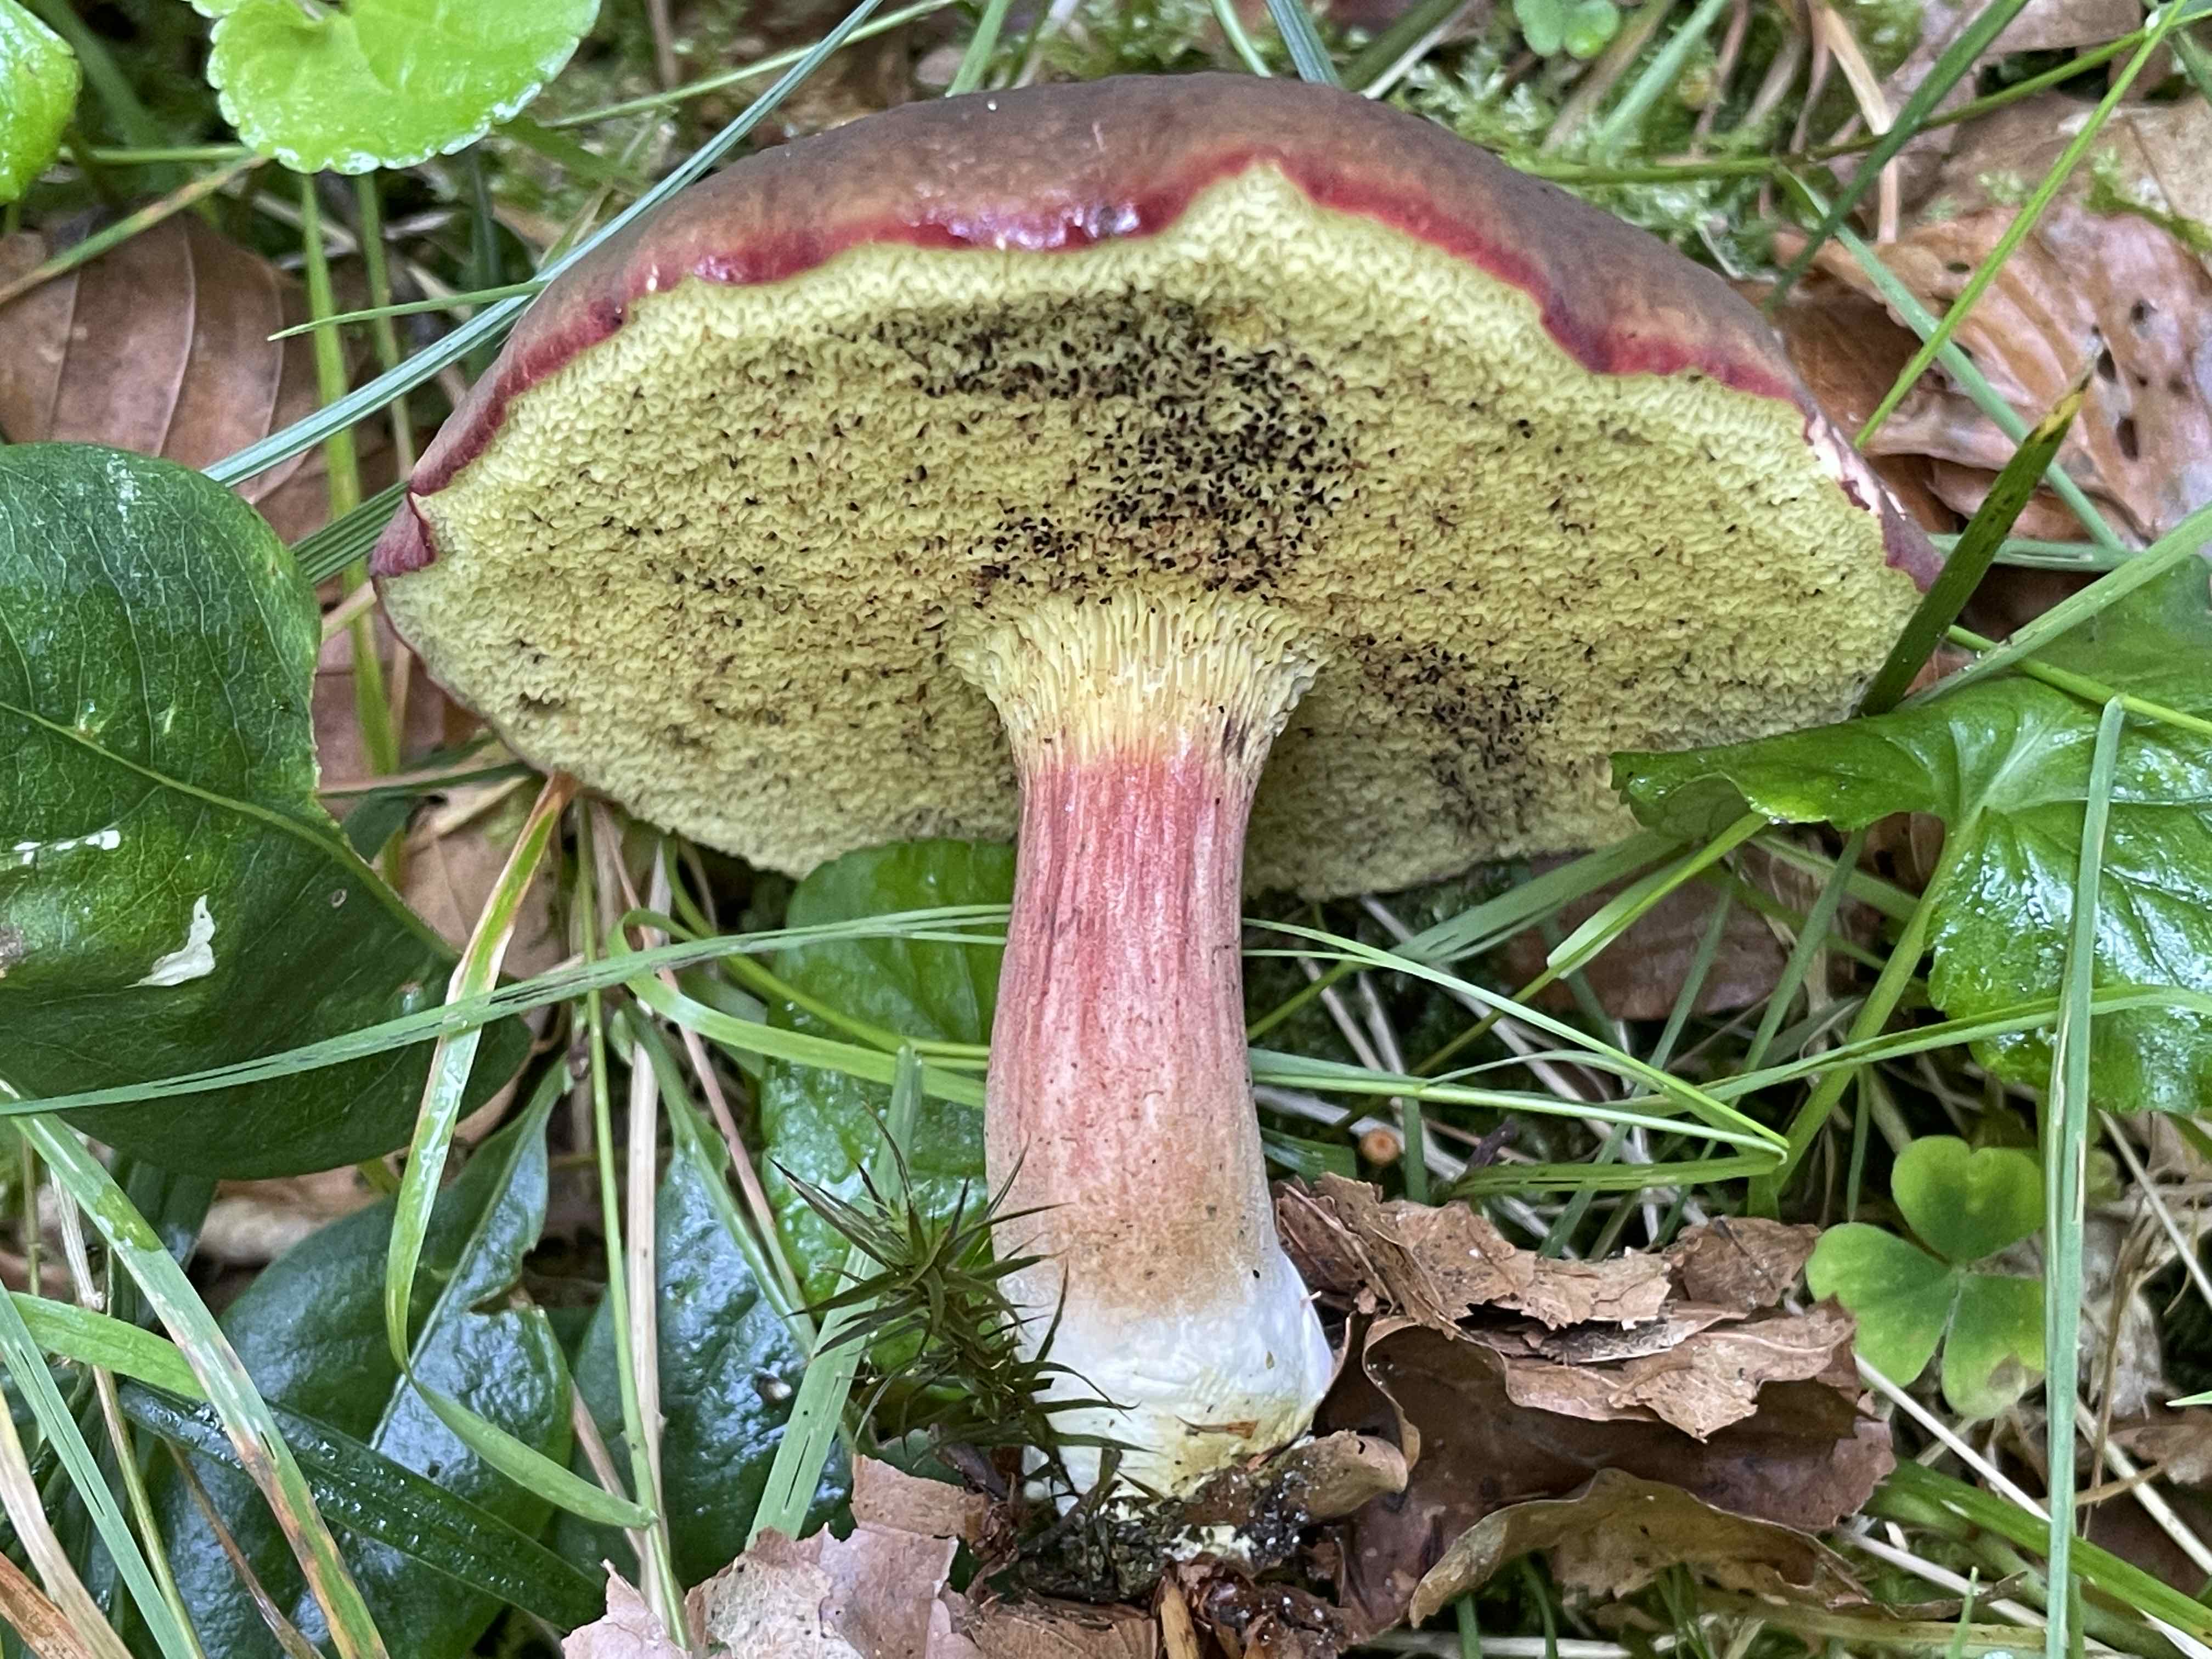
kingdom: Fungi
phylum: Basidiomycota
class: Agaricomycetes
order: Boletales
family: Boletaceae
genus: Xerocomellus
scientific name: Xerocomellus pruinatus
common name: dugget rørhat
